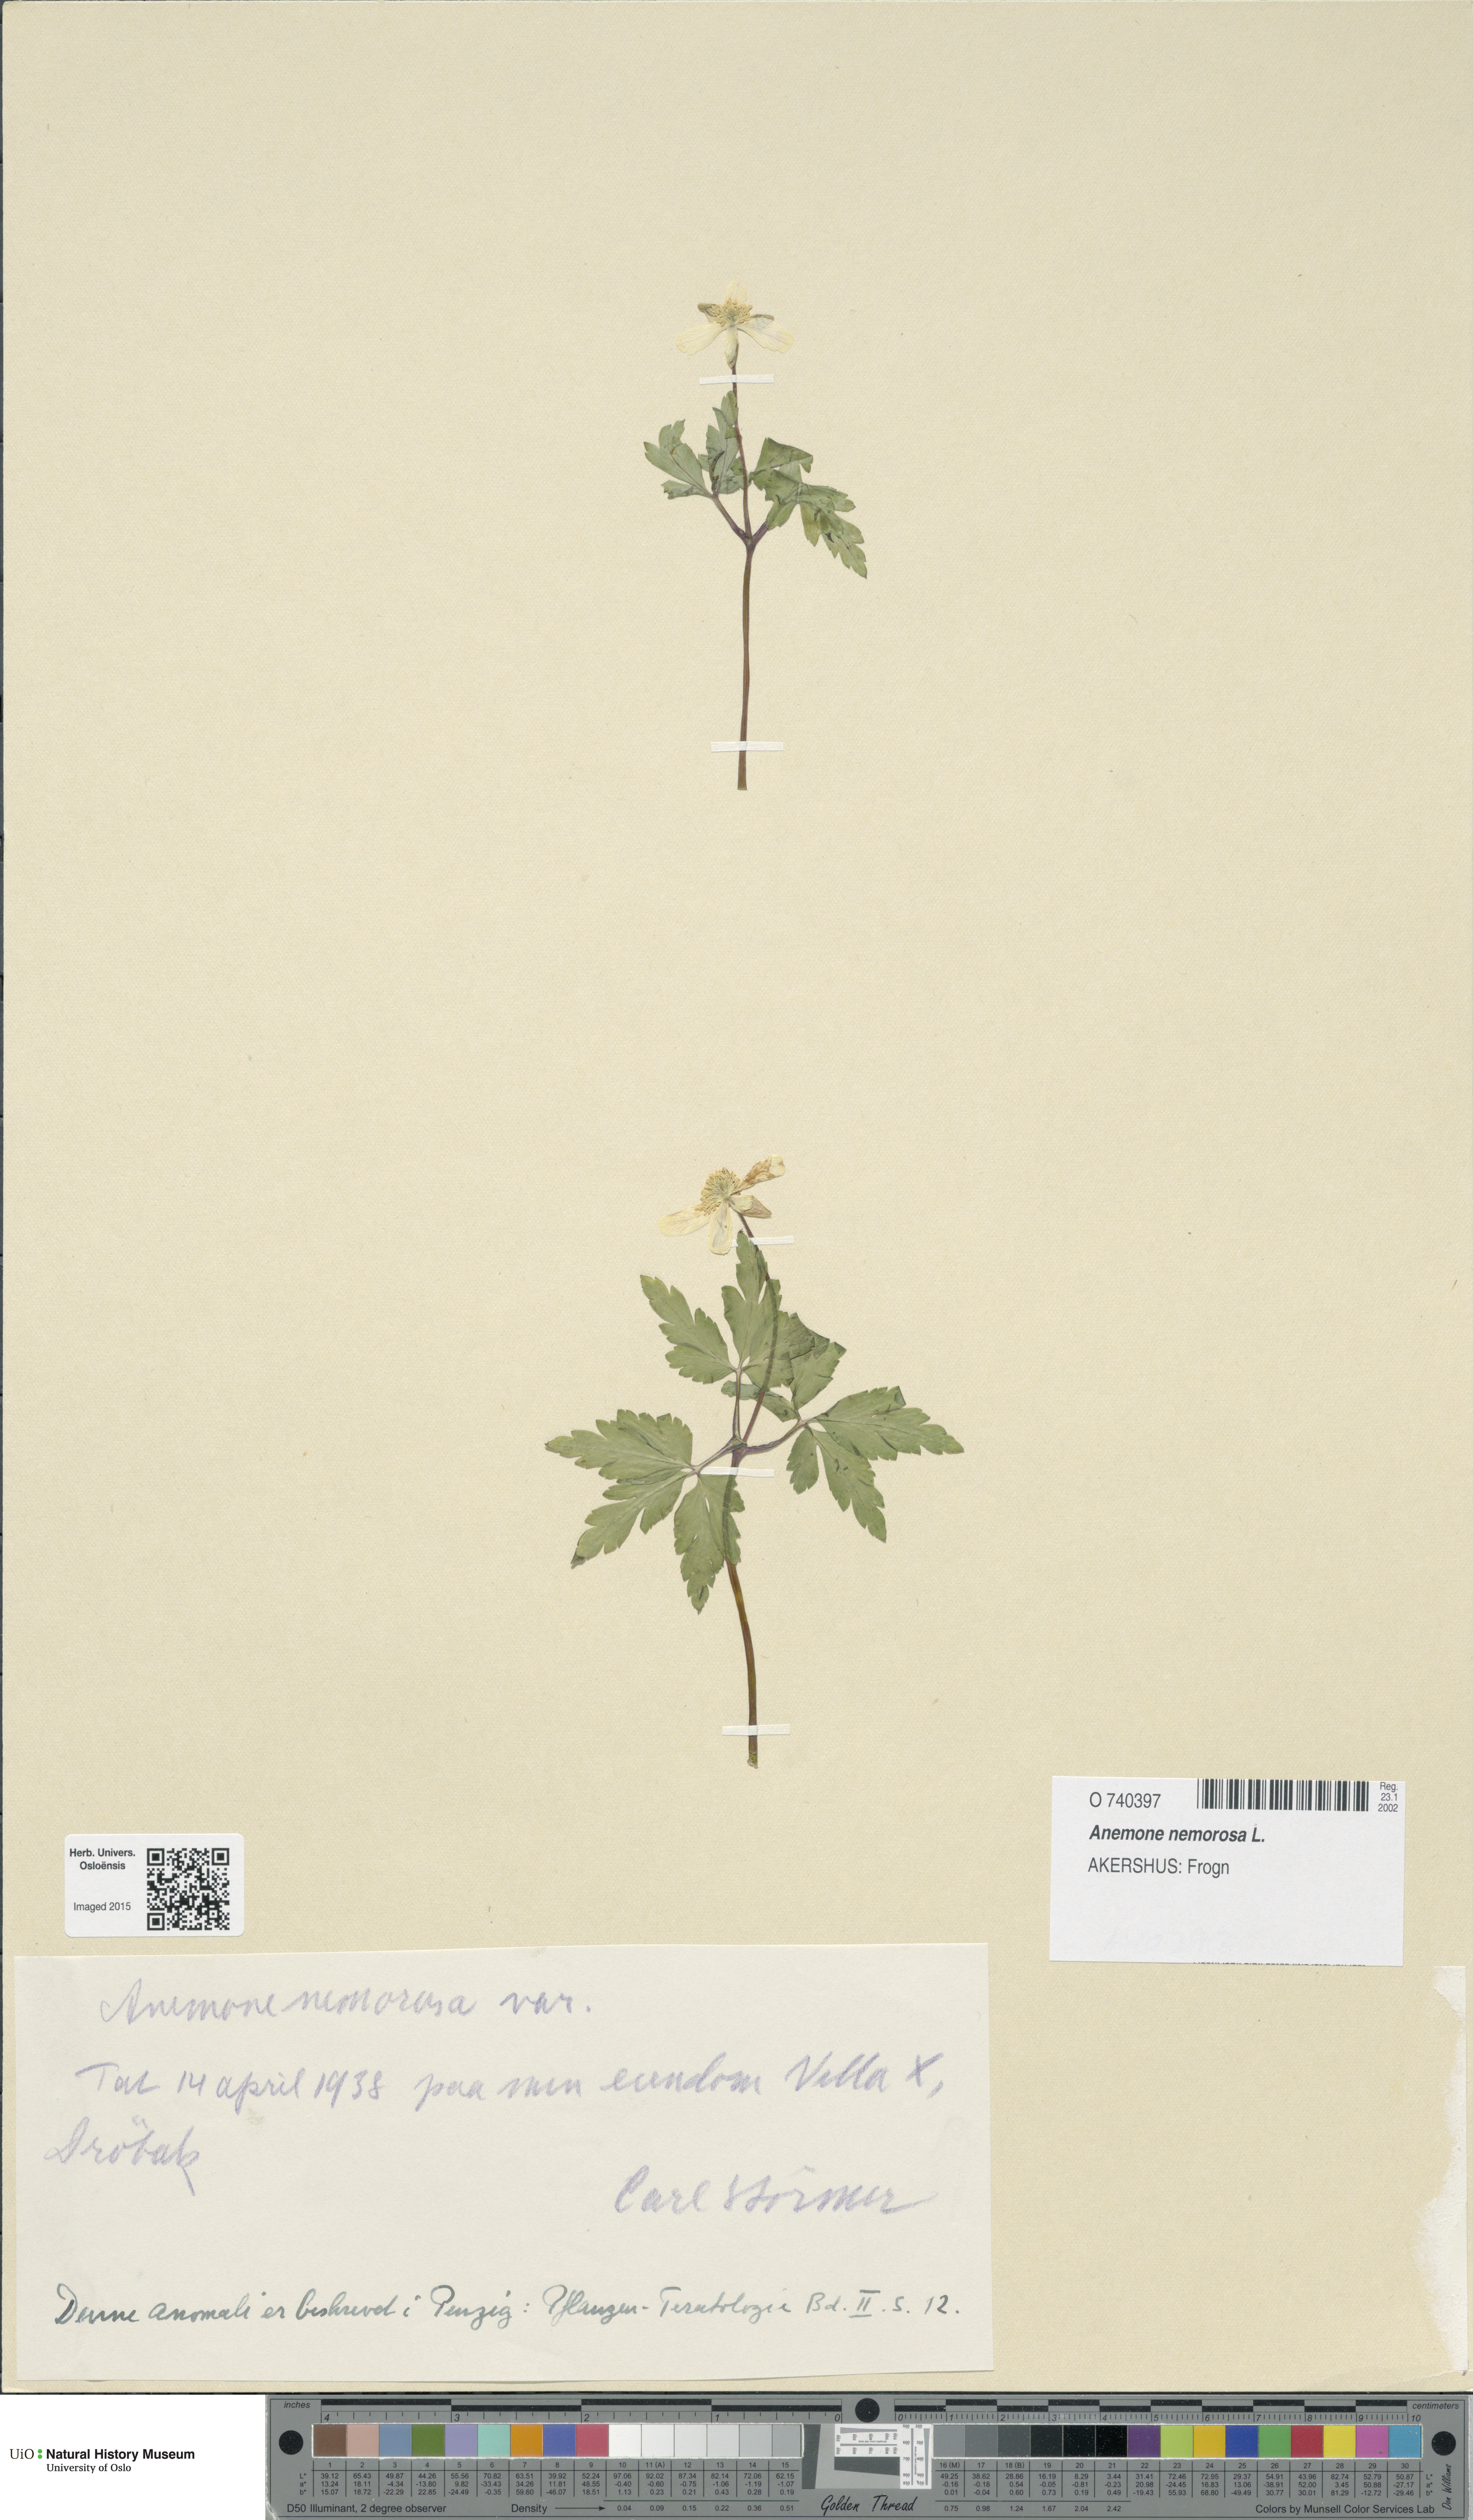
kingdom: Plantae
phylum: Tracheophyta
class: Magnoliopsida
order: Ranunculales
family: Ranunculaceae
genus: Anemone
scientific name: Anemone nemorosa
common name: Wood anemone
